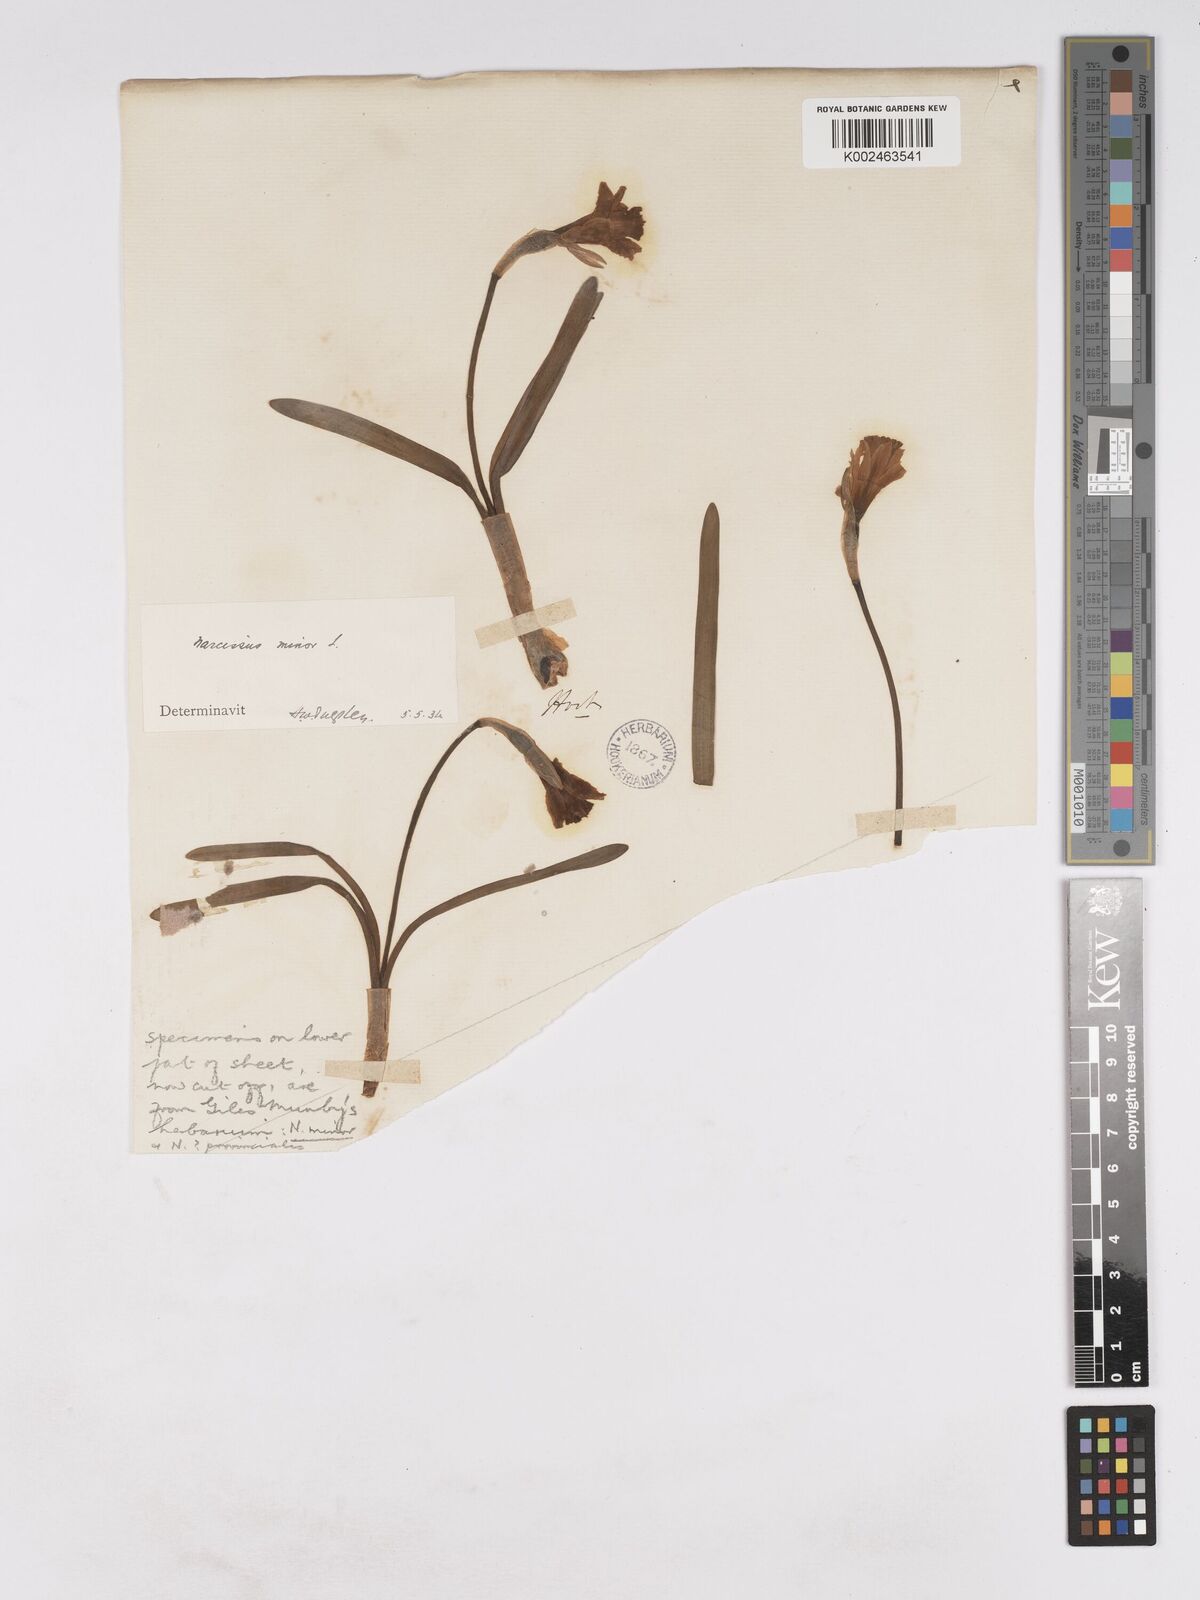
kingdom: Plantae
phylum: Tracheophyta
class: Liliopsida
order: Asparagales
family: Amaryllidaceae
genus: Narcissus
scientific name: Narcissus minor
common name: Lesser daffodil
